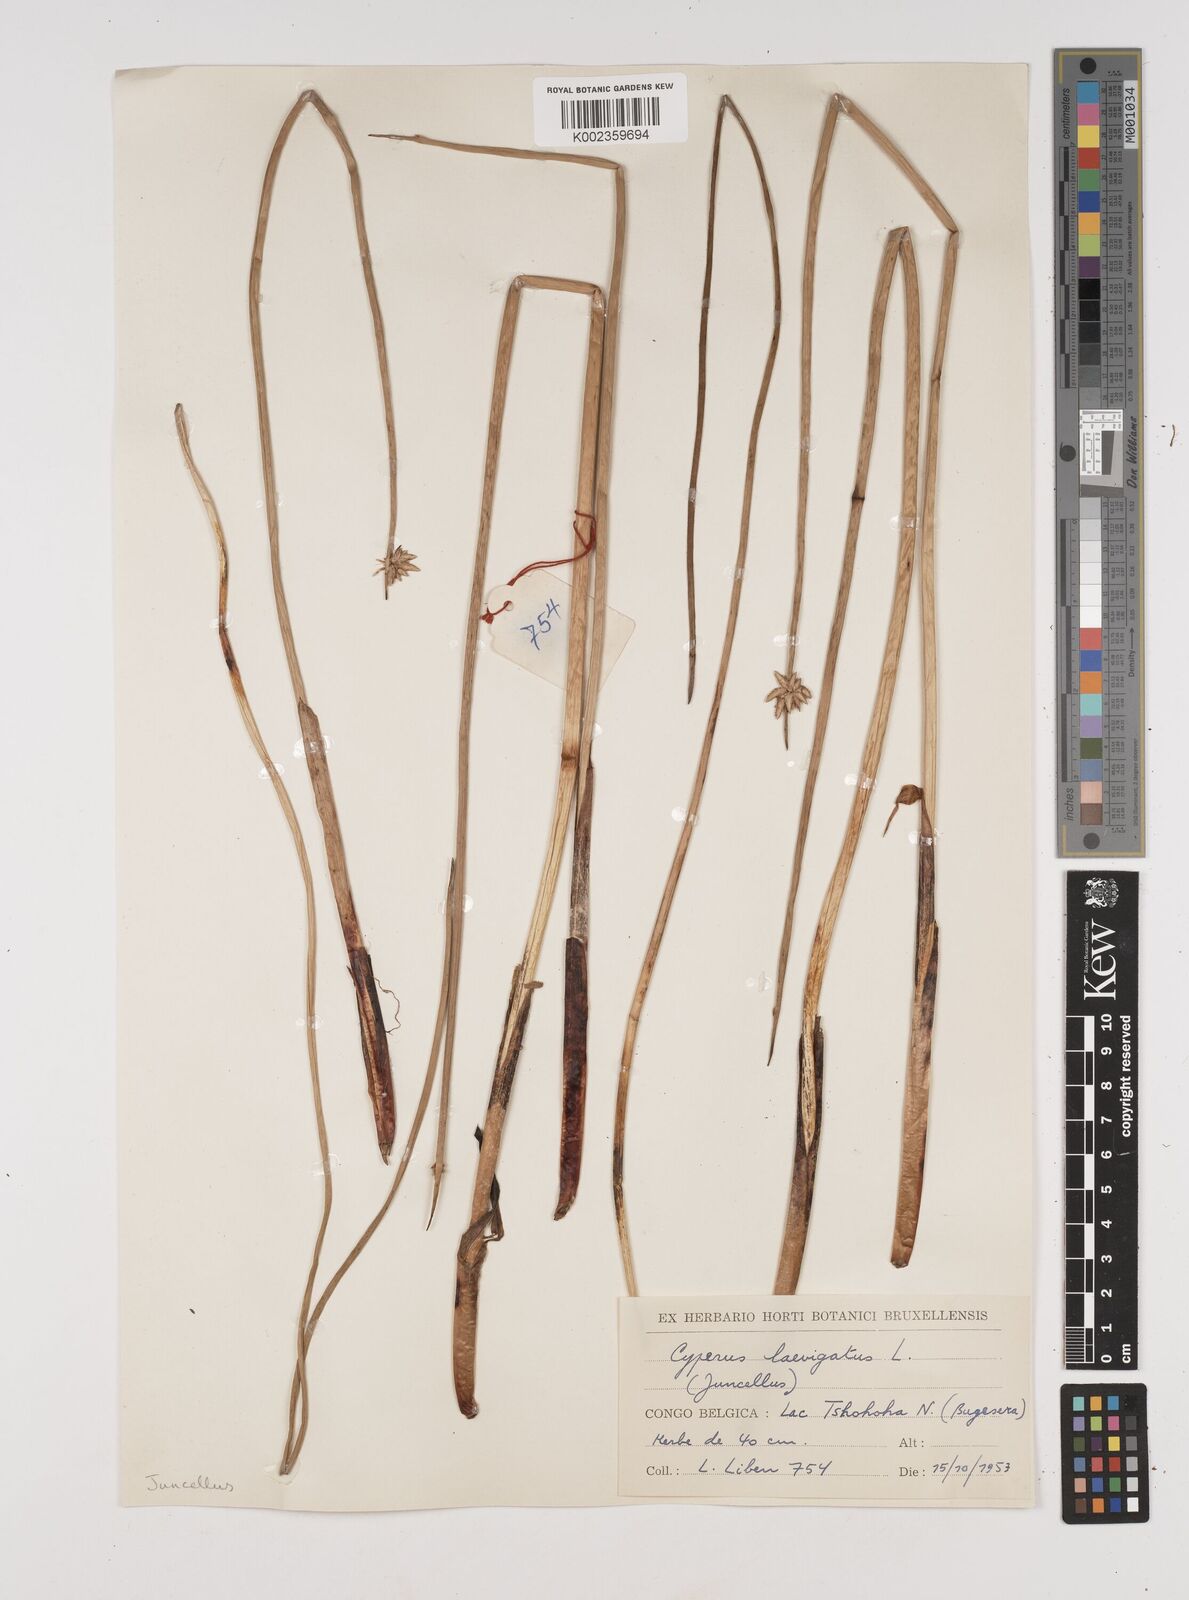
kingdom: Plantae
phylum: Tracheophyta
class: Liliopsida
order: Poales
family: Cyperaceae
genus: Cyperus
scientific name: Cyperus laevigatus
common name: Smooth flat sedge
